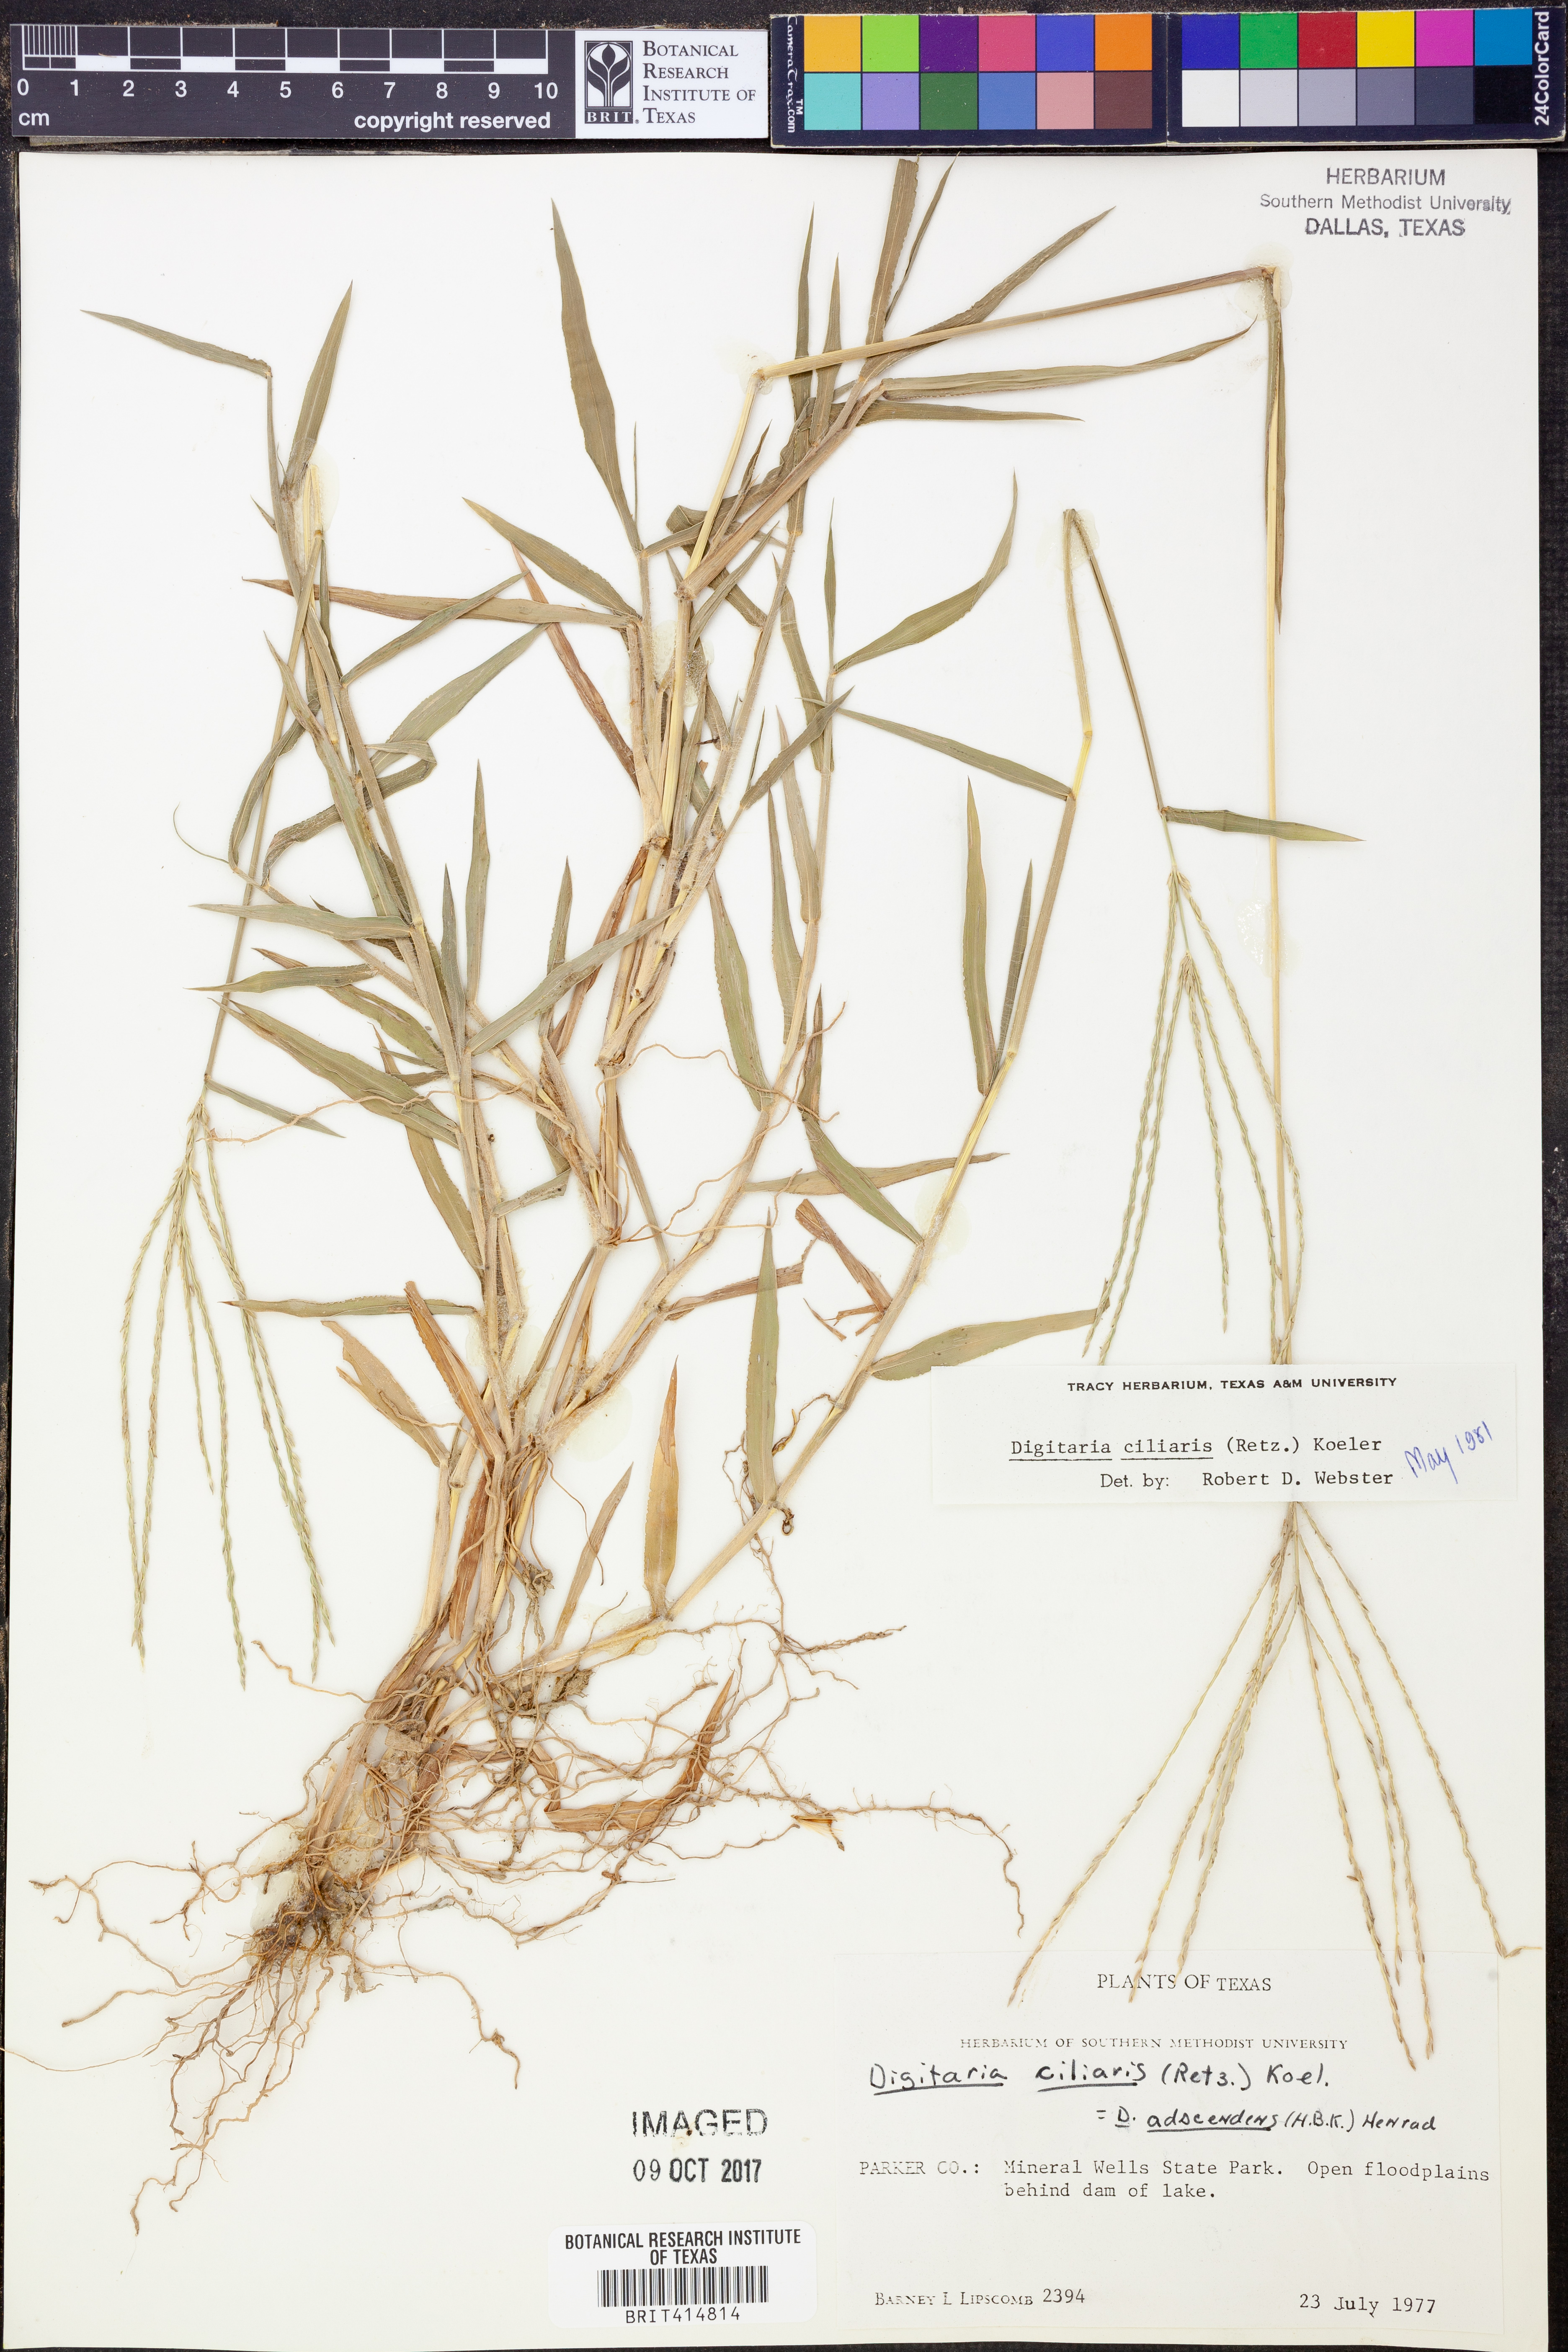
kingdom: Plantae
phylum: Tracheophyta
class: Liliopsida
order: Poales
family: Poaceae
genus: Digitaria
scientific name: Digitaria ciliaris
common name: Tropical finger-grass
